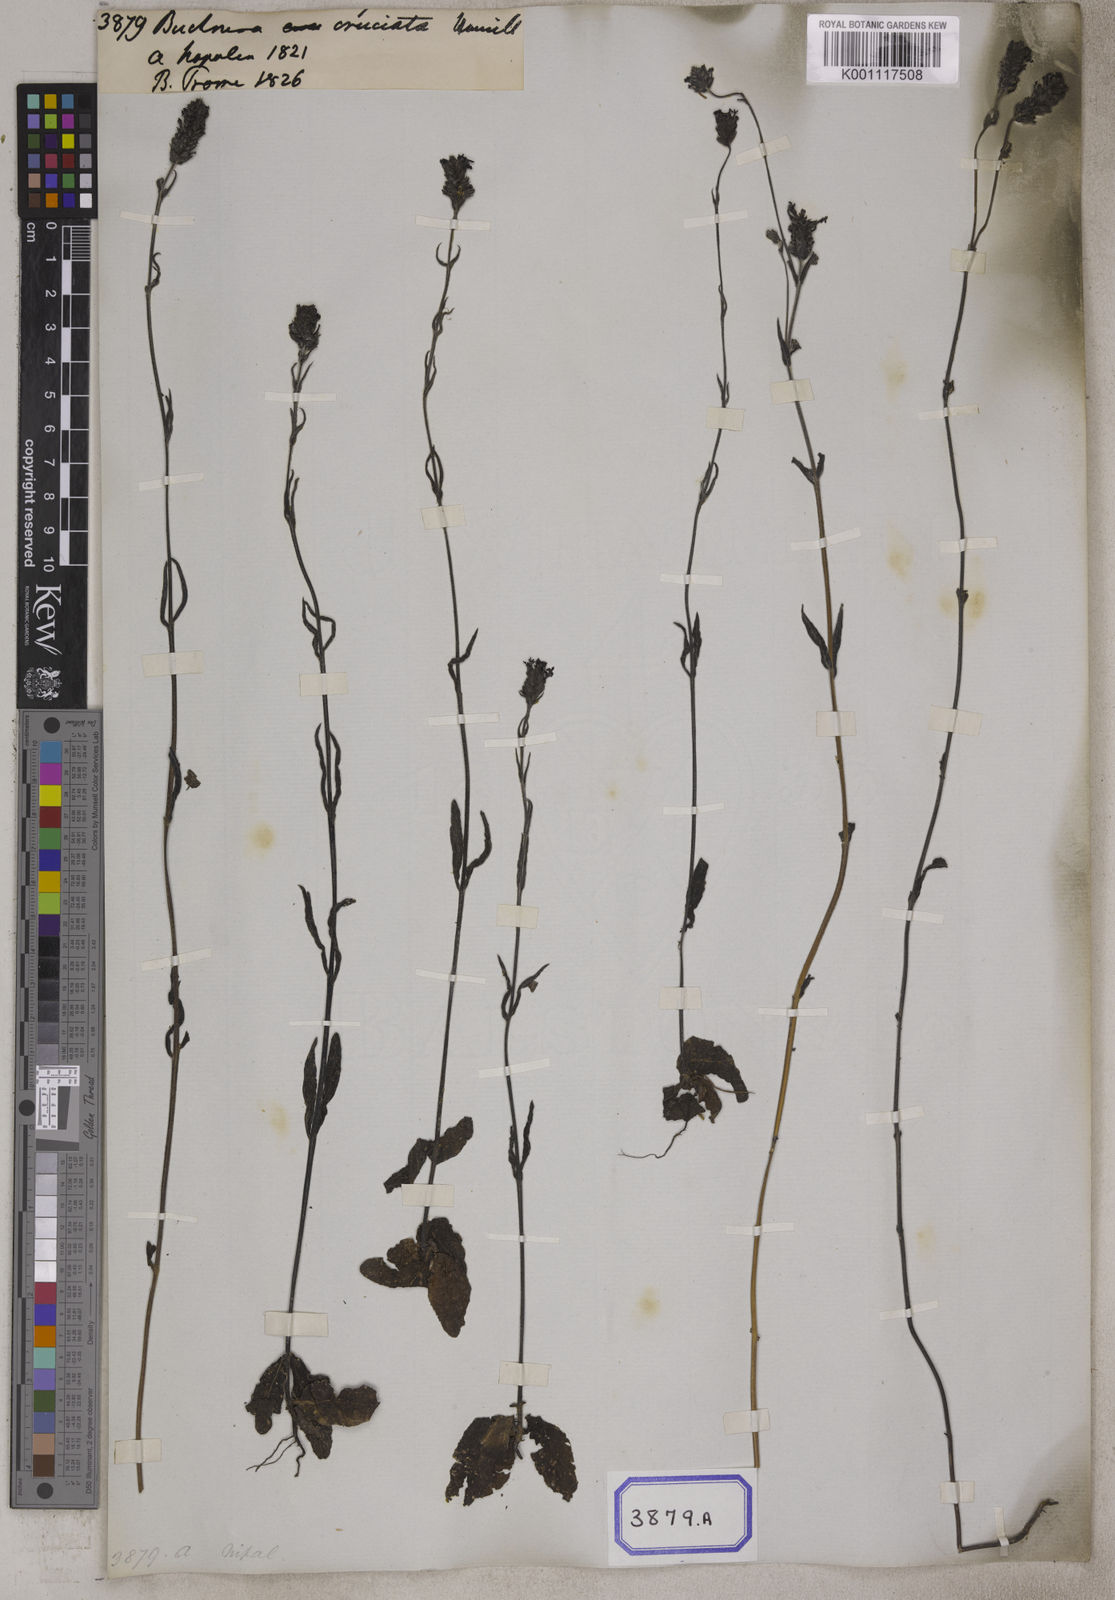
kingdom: Plantae
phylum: Tracheophyta
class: Magnoliopsida
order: Lamiales
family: Orobanchaceae
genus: Buchnera
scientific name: Buchnera cruciata
